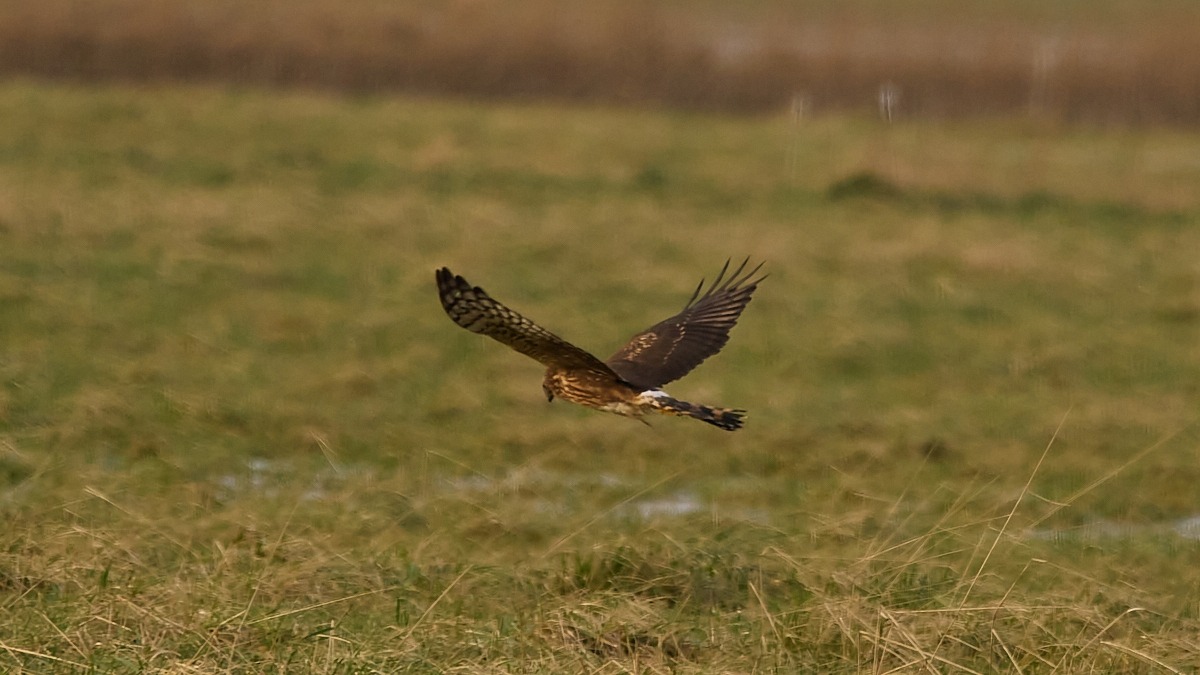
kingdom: Animalia
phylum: Chordata
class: Aves
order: Accipitriformes
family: Accipitridae
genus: Circus
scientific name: Circus cyaneus
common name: Blå kærhøg
